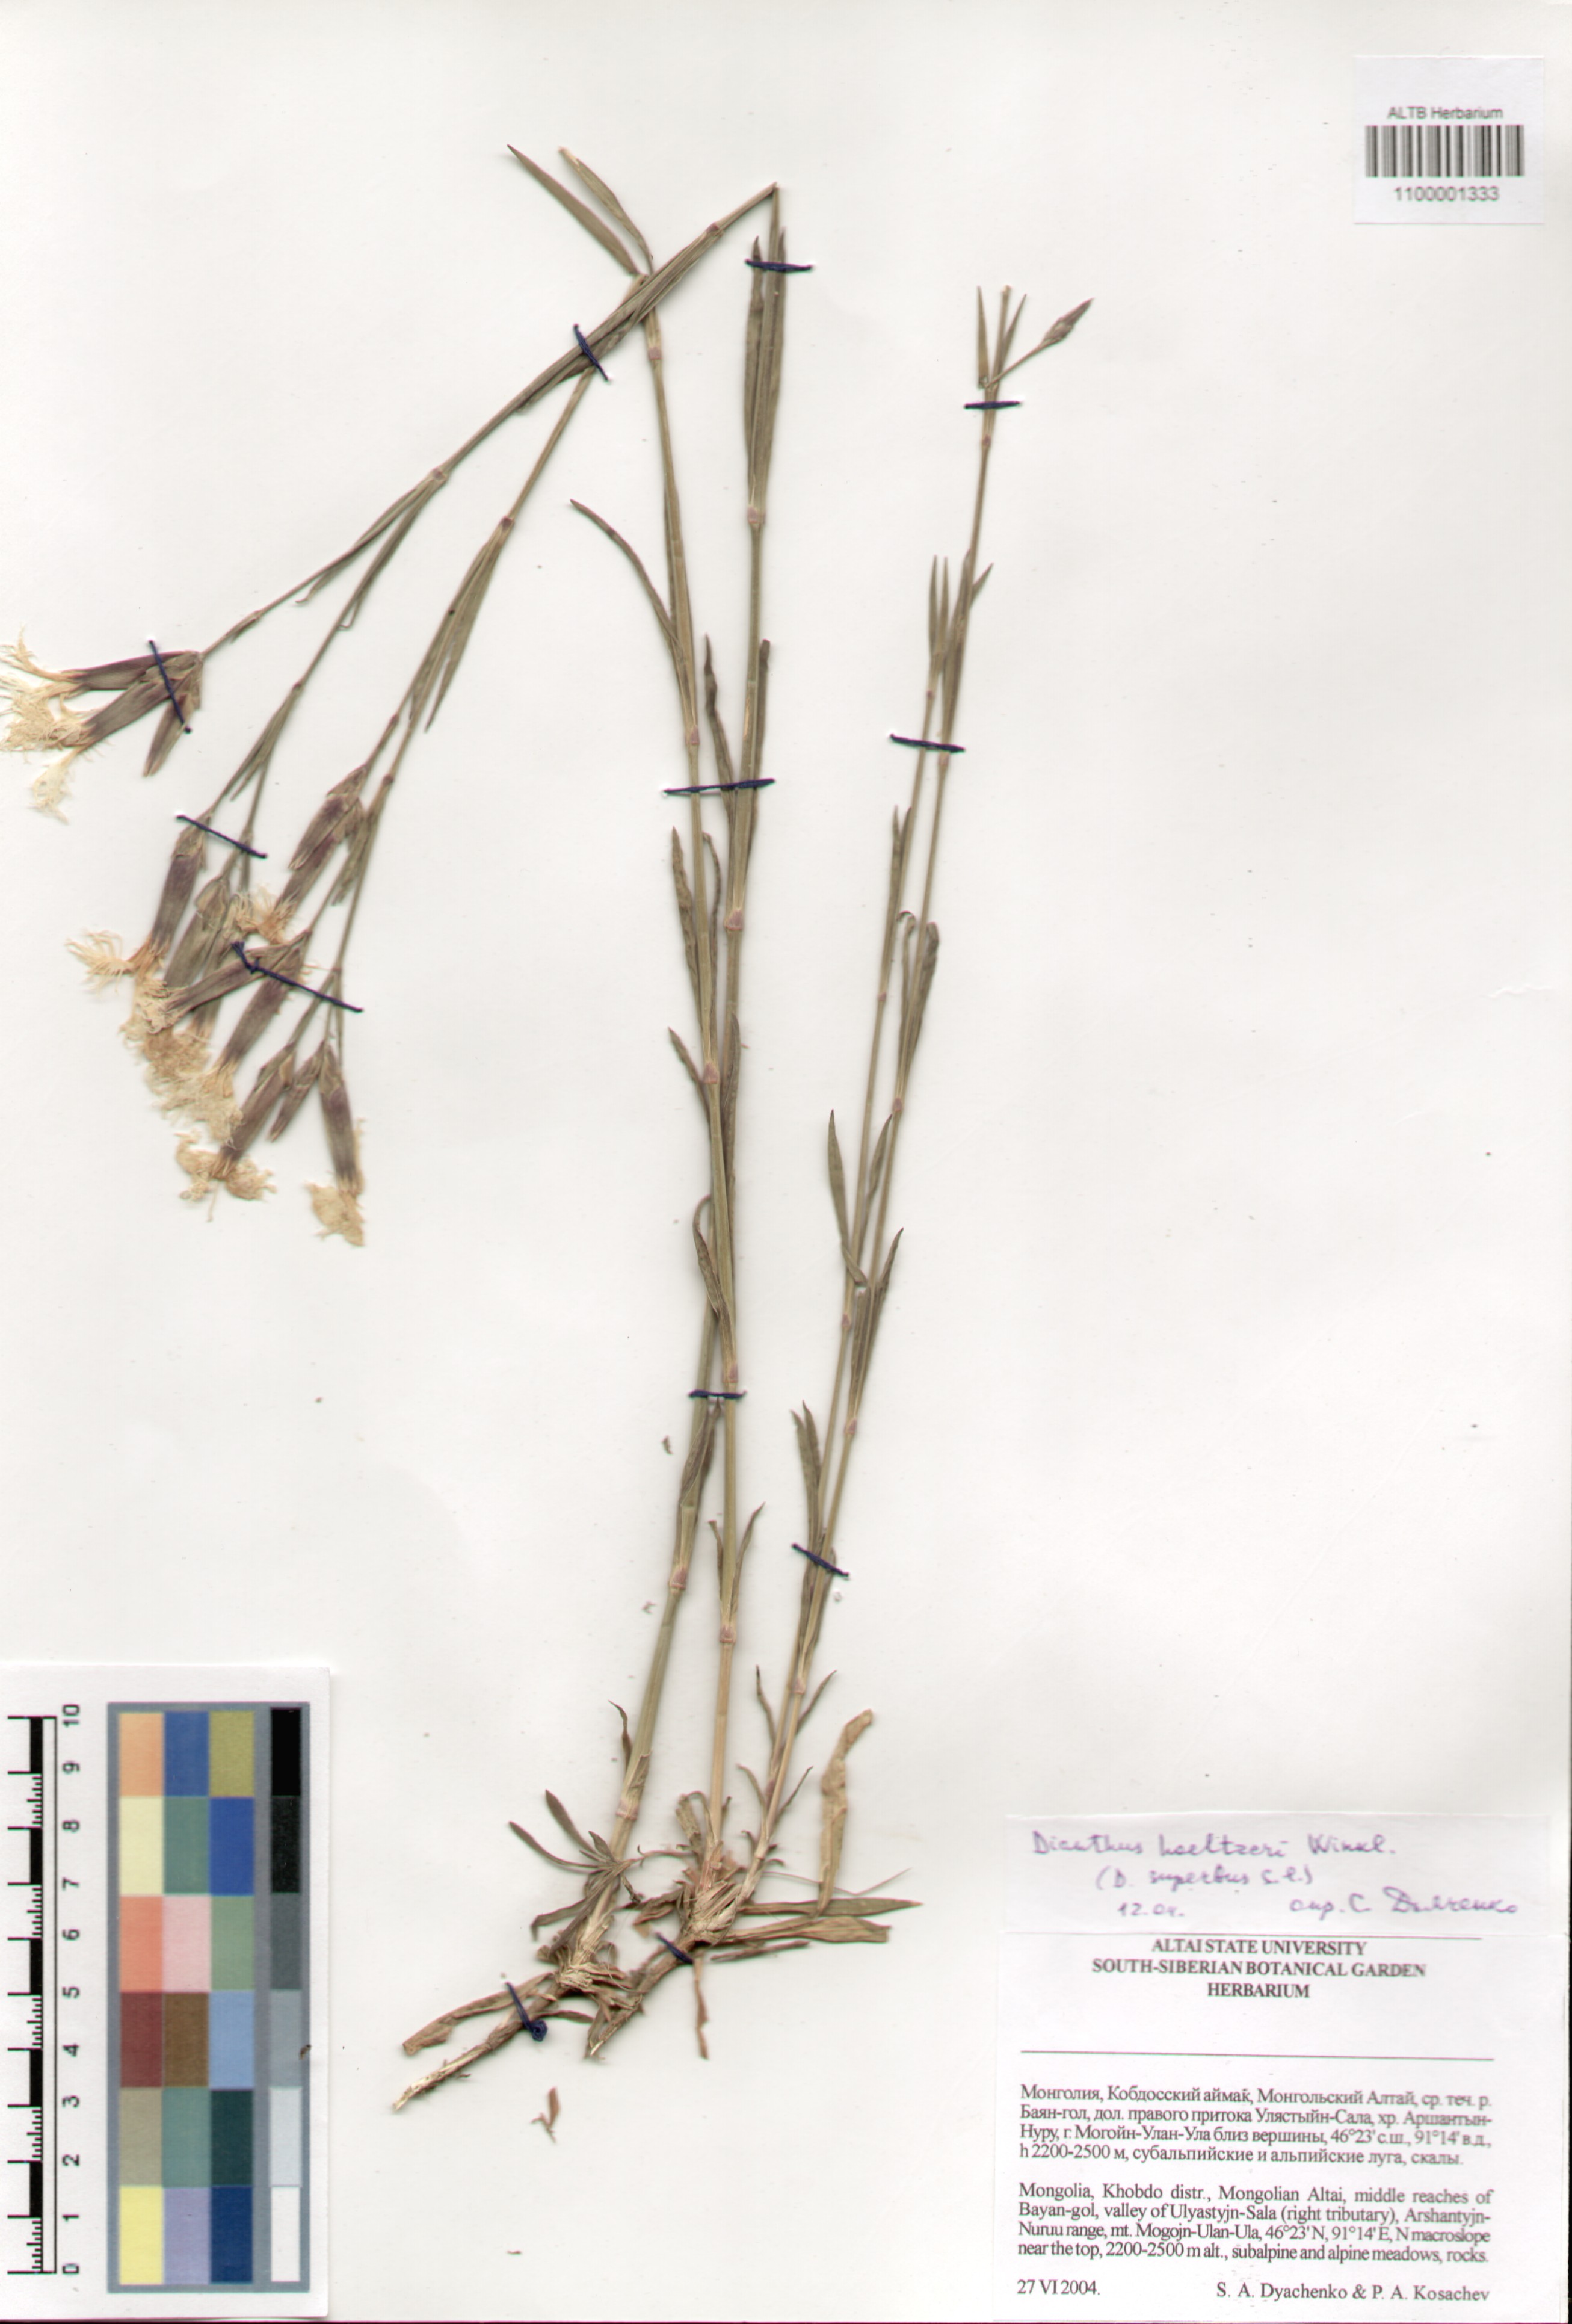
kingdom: Plantae
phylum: Tracheophyta
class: Magnoliopsida
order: Caryophyllales
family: Caryophyllaceae
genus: Dianthus
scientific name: Dianthus hoeltzeri
